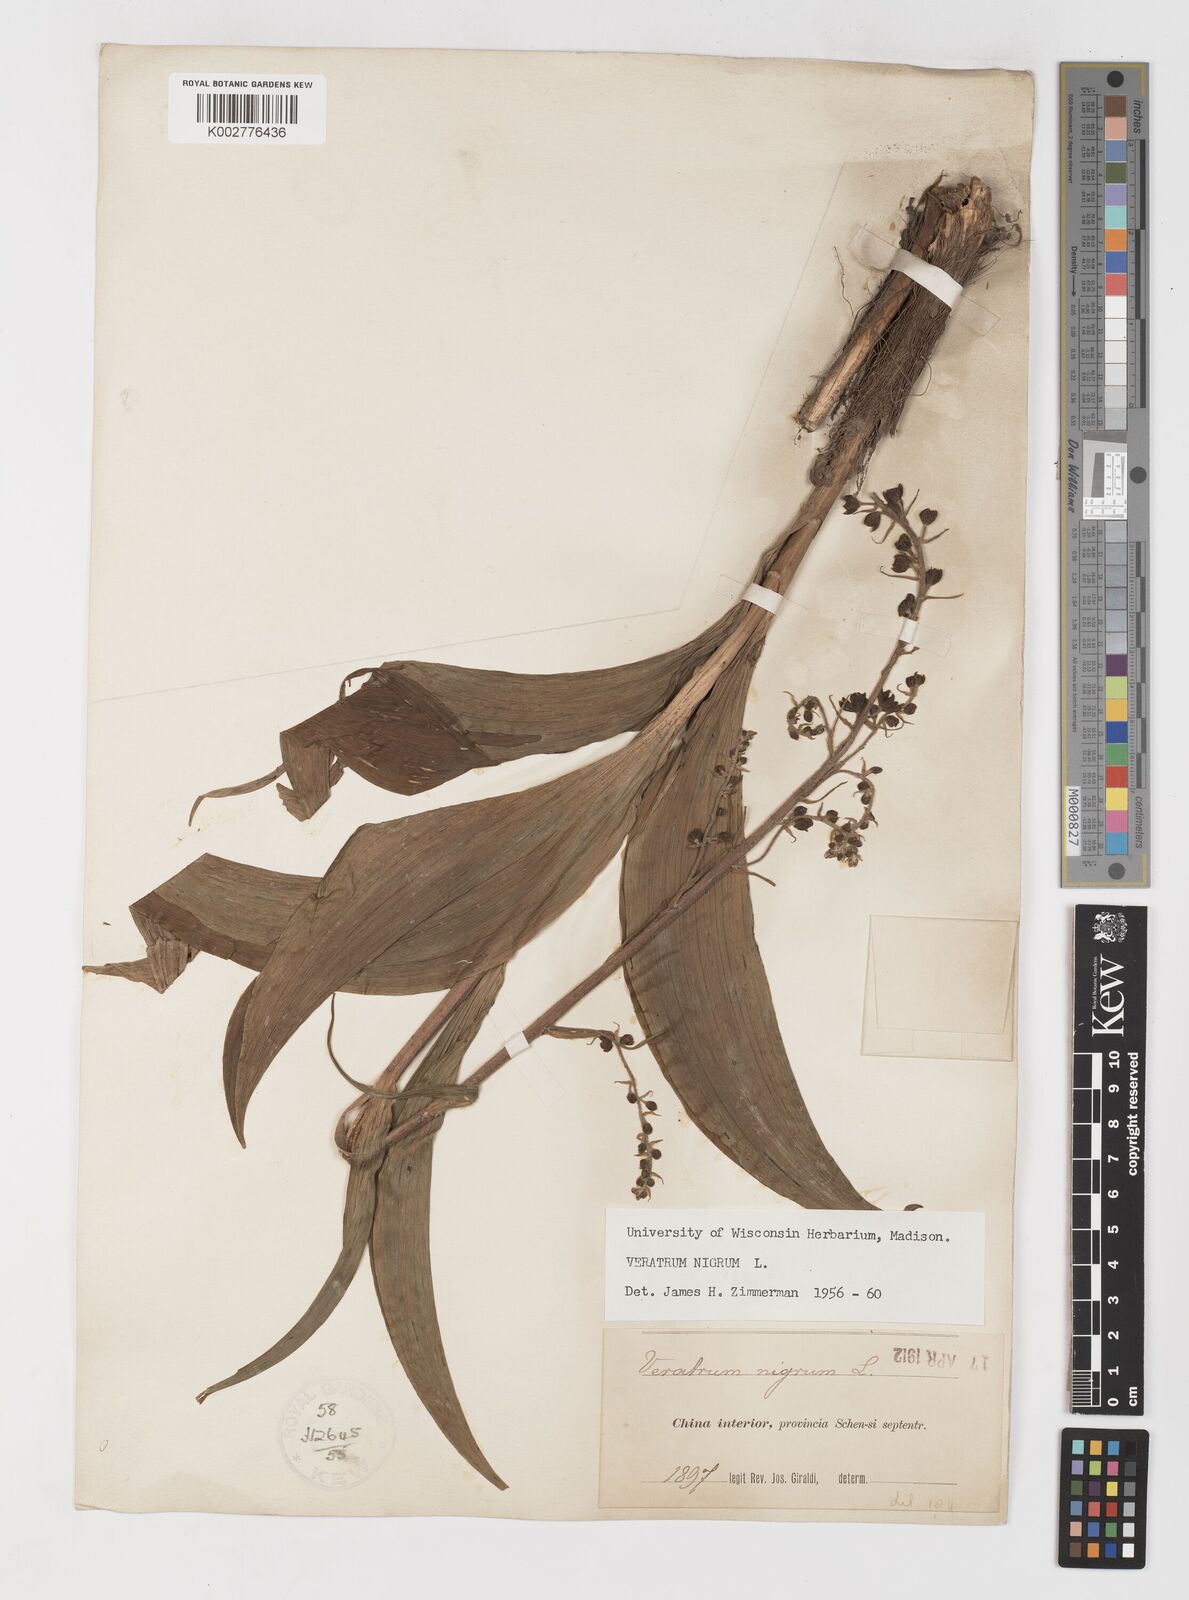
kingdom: Plantae
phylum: Tracheophyta
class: Liliopsida
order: Liliales
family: Melanthiaceae
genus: Veratrum
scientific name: Veratrum nigrum
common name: Black veratrum
